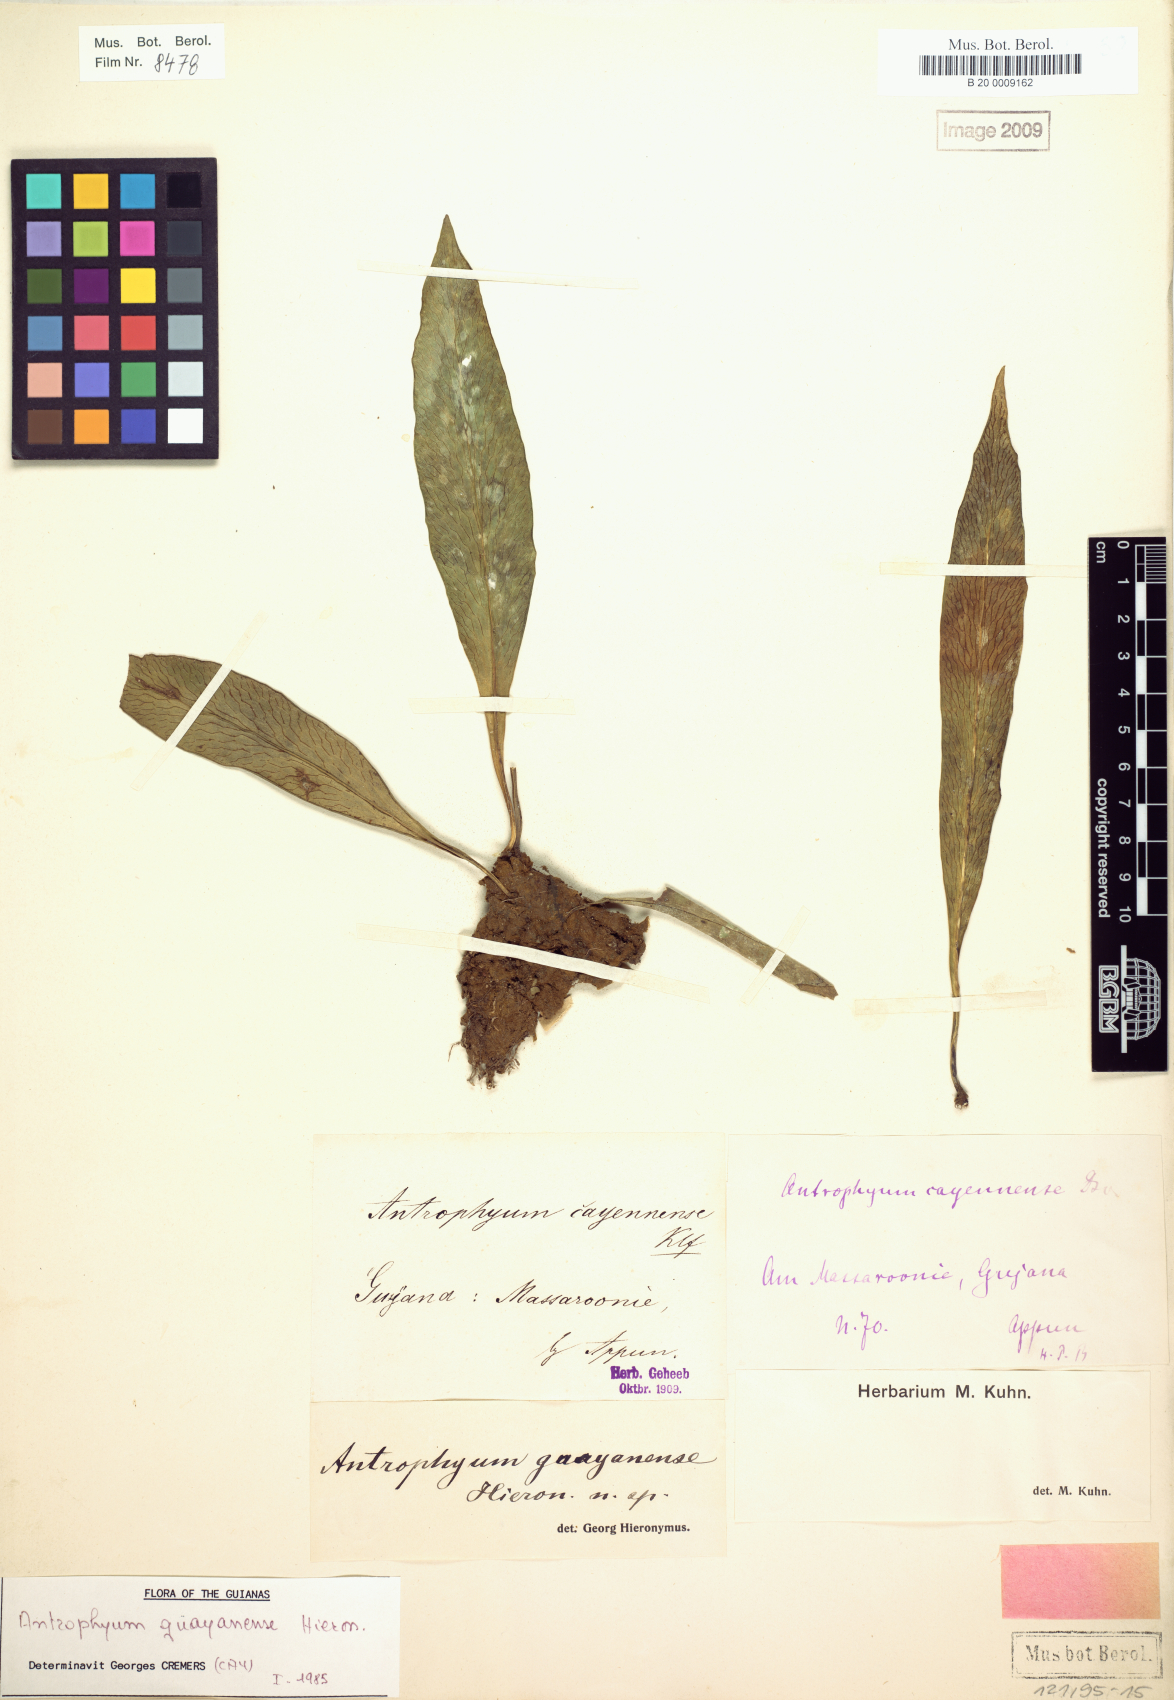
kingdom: Plantae
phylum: Tracheophyta
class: Polypodiopsida
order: Polypodiales
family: Pteridaceae
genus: Polytaenium
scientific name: Polytaenium guayanense
